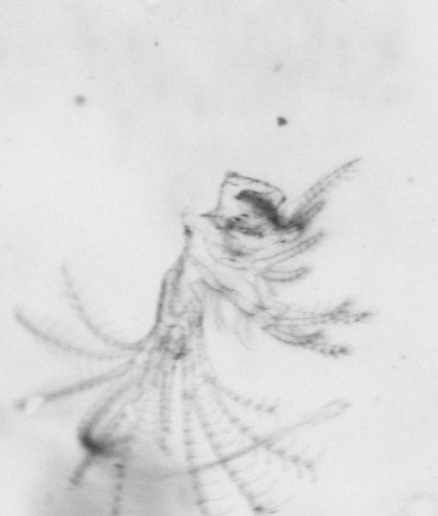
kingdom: Animalia
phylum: Arthropoda
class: Maxillopoda
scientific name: Maxillopoda
